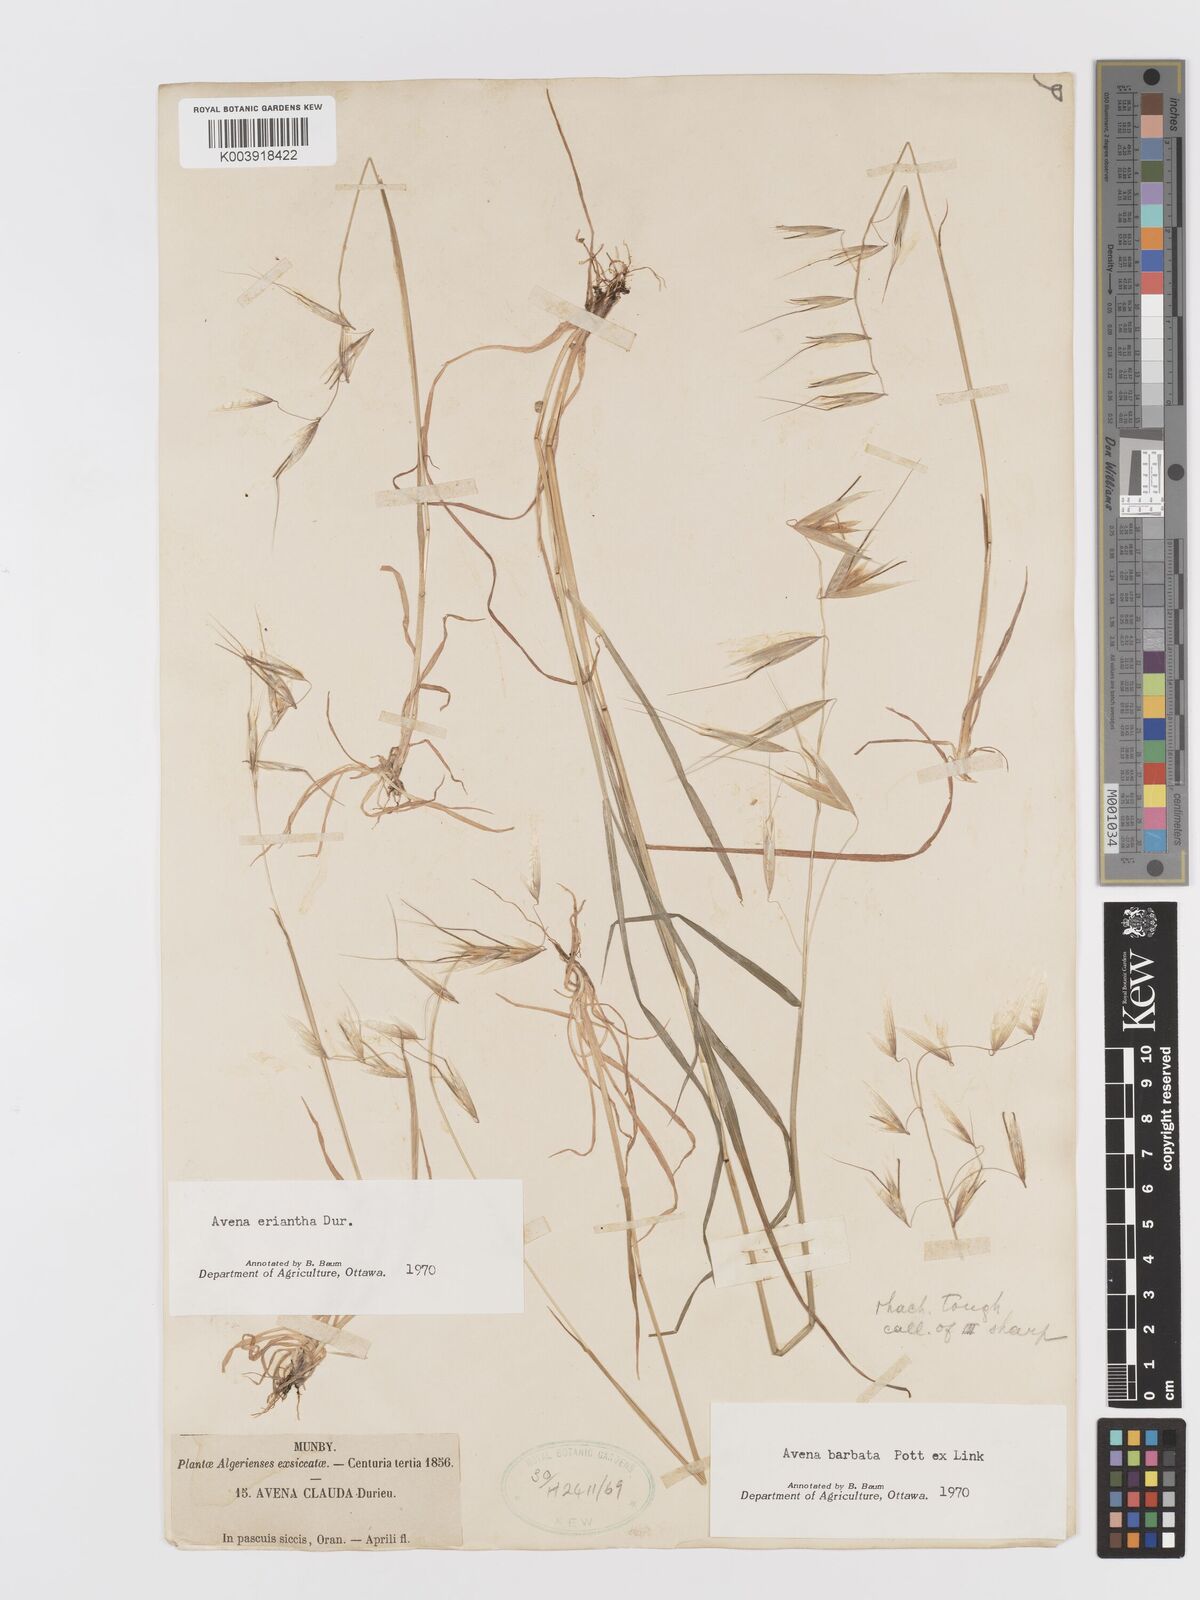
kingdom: Plantae
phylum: Tracheophyta
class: Liliopsida
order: Poales
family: Poaceae
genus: Avena
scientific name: Avena eriantha
